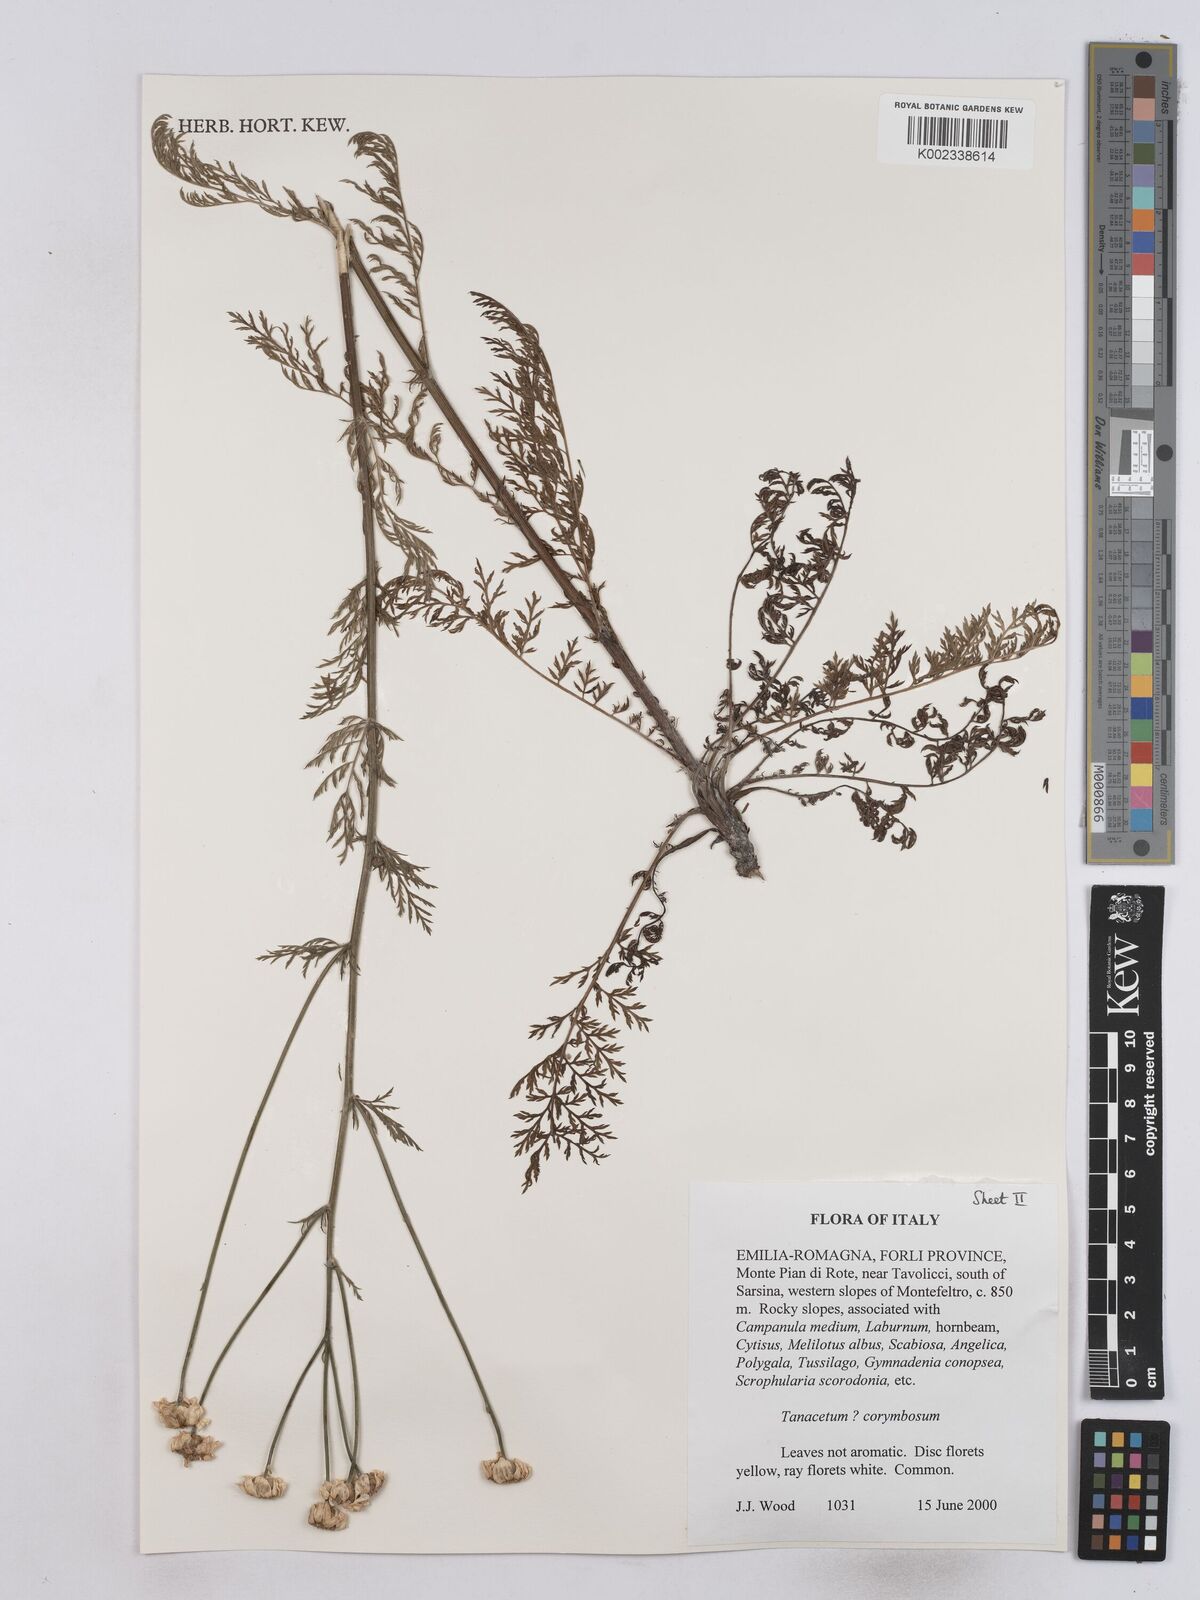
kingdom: Plantae
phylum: Tracheophyta
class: Magnoliopsida
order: Asterales
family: Asteraceae
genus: Tanacetum
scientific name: Tanacetum corymbosum
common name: Scentless feverfew
